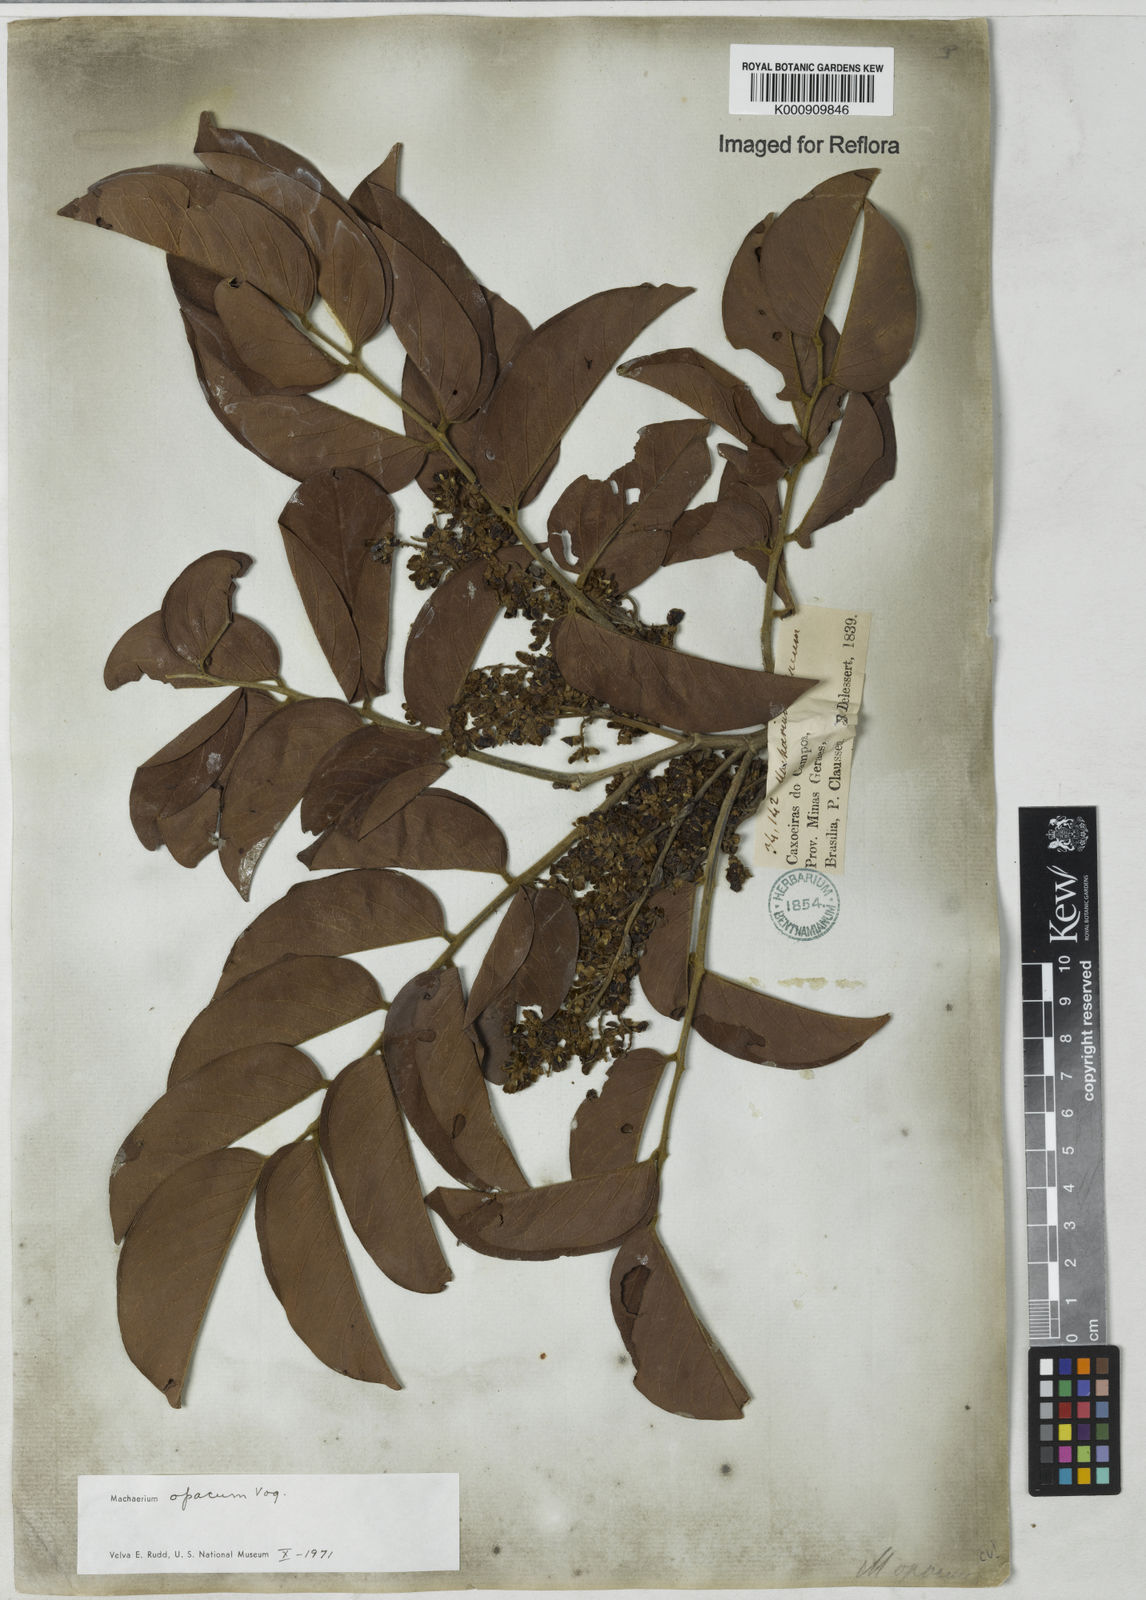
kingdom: Plantae
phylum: Tracheophyta
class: Magnoliopsida
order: Fabales
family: Fabaceae
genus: Machaerium
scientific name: Machaerium opacum
